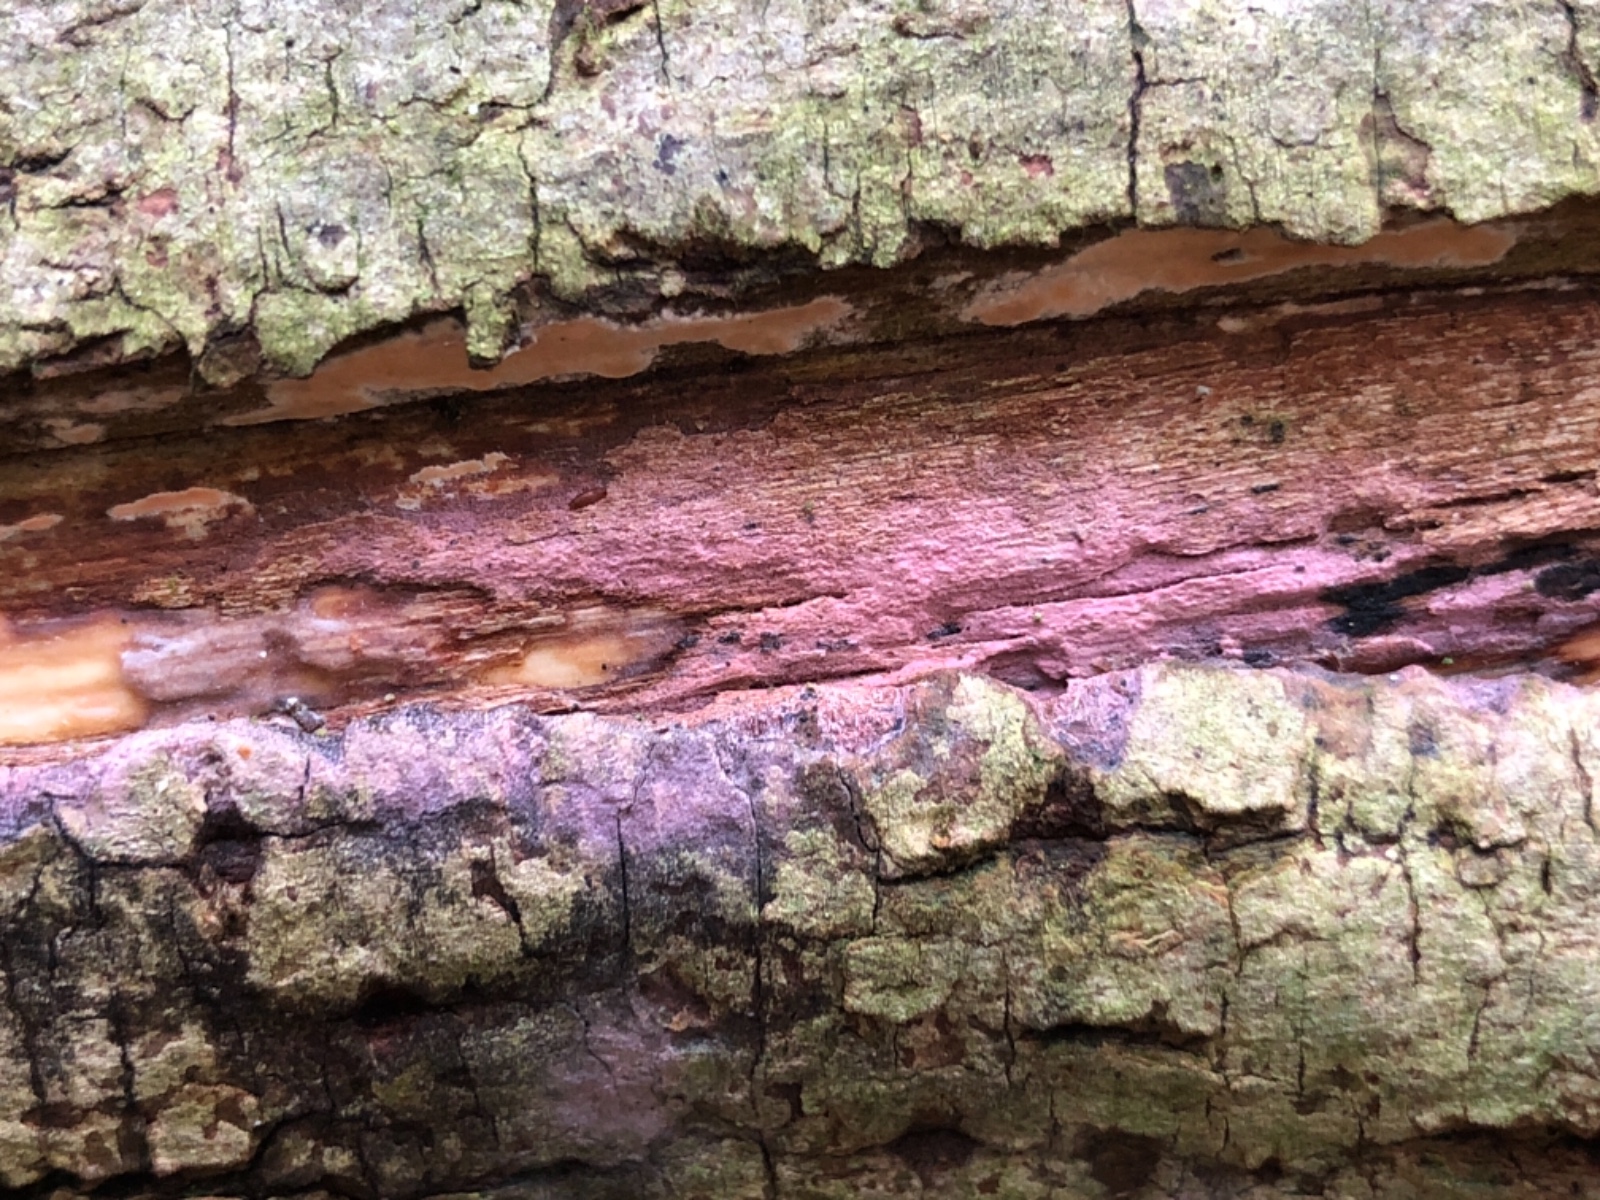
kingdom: Fungi
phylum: Basidiomycota
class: Agaricomycetes
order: Cantharellales
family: Tulasnellaceae
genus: Tulasnella
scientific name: Tulasnella violea
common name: violet ballonhinde
